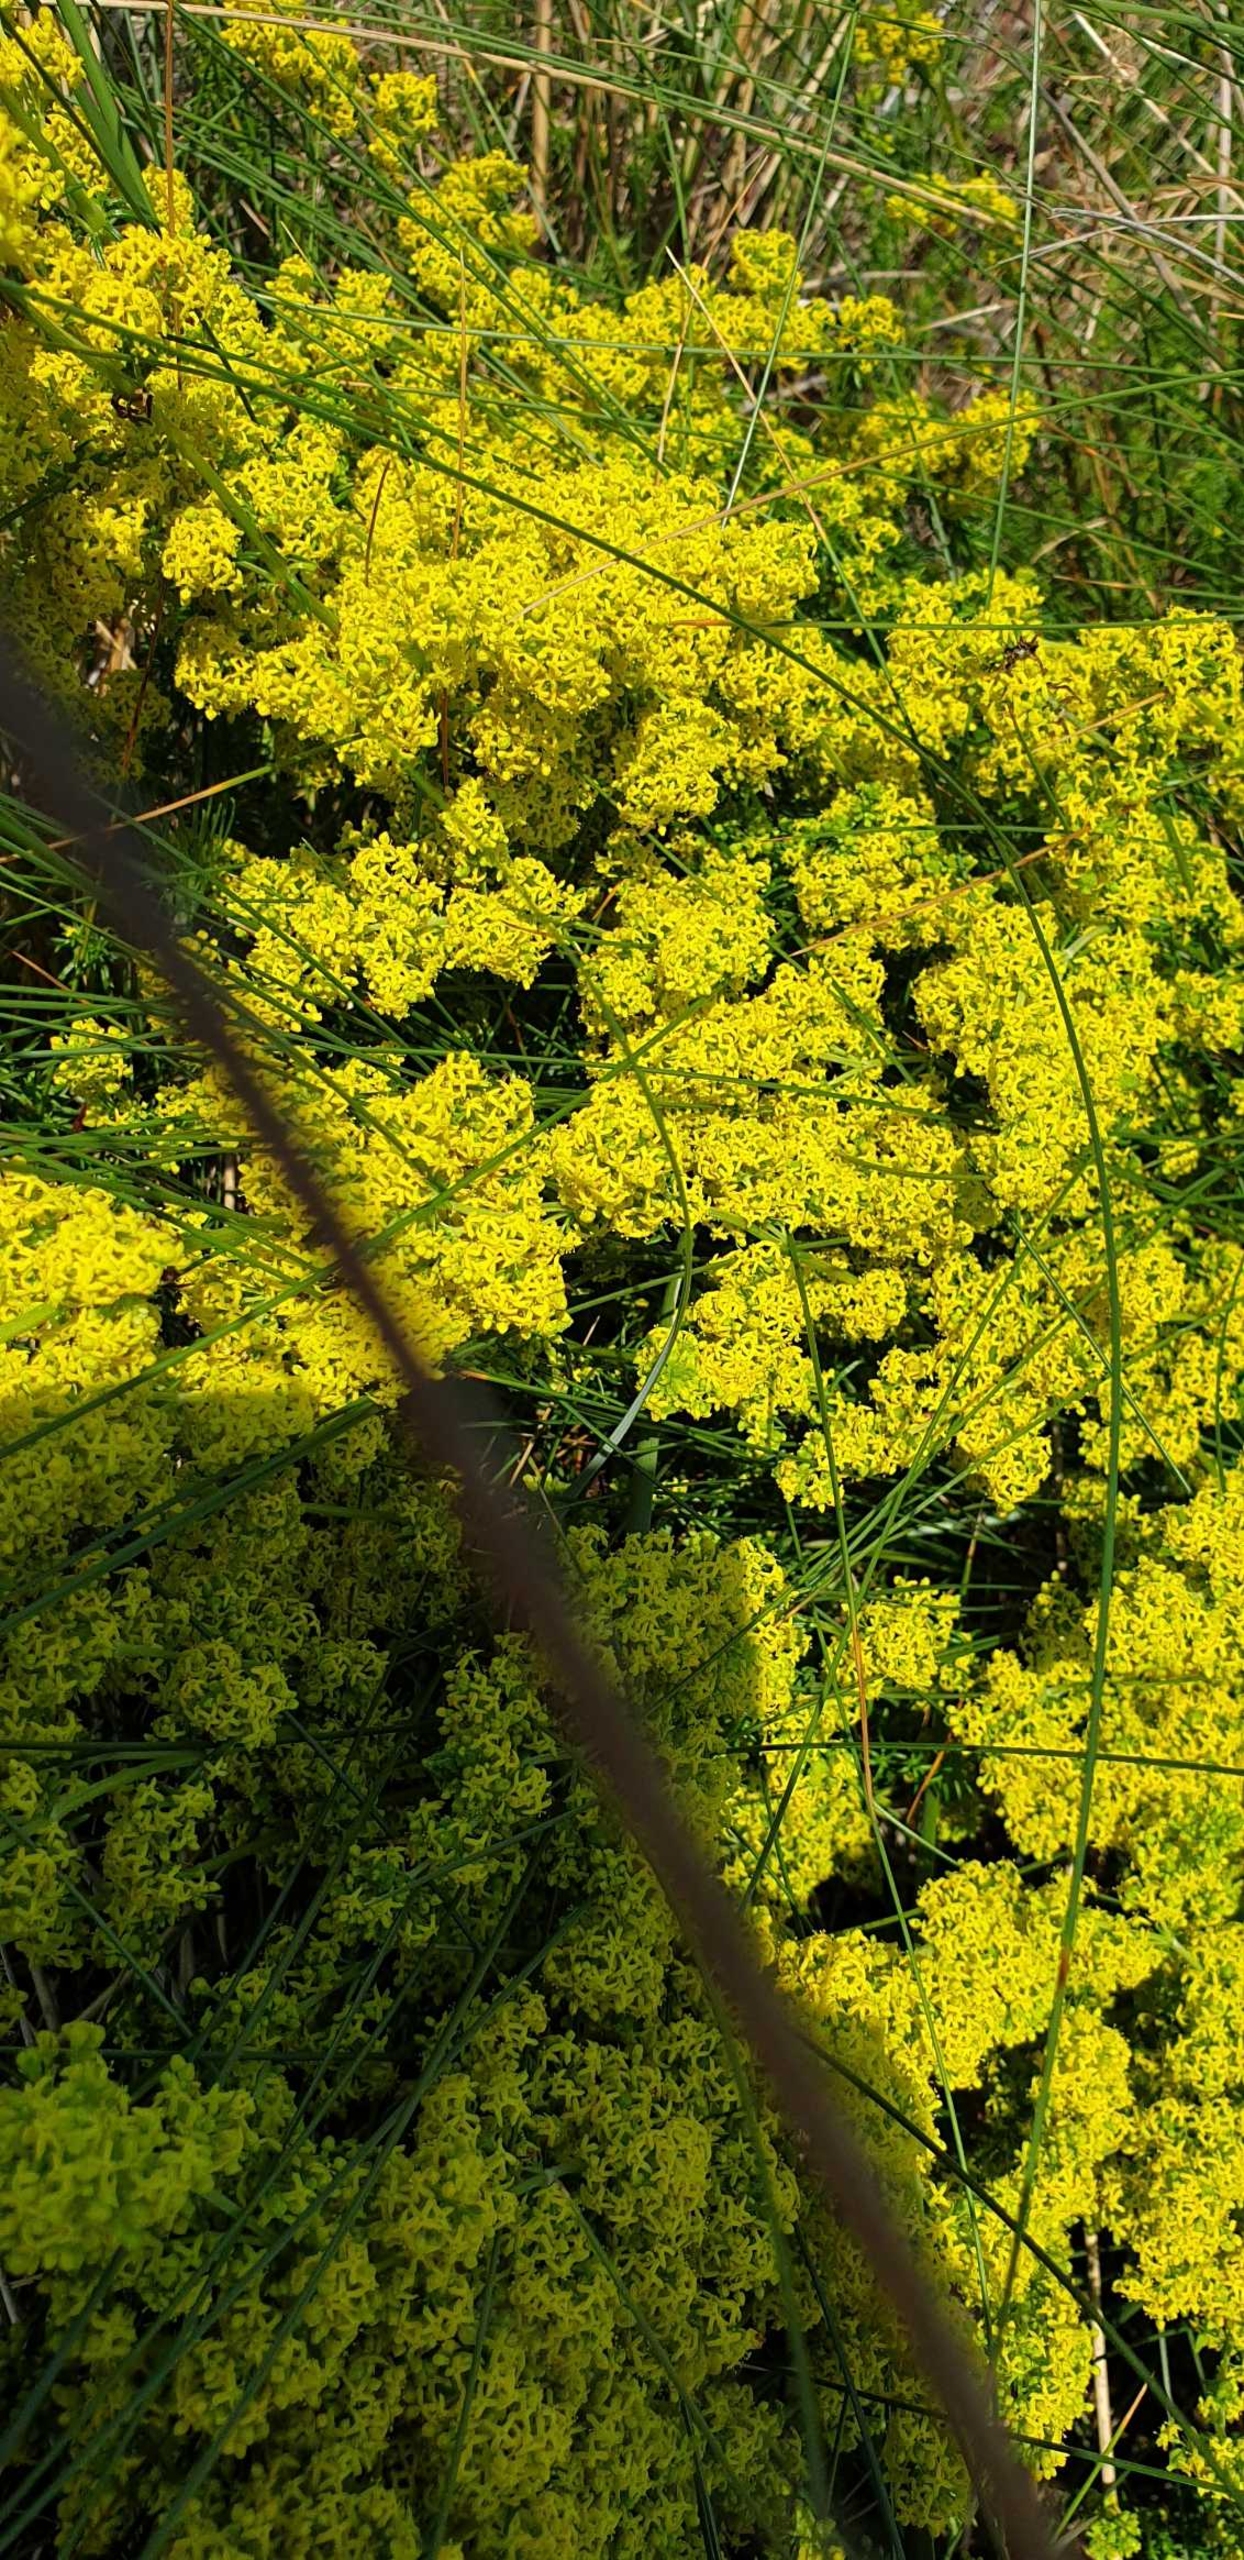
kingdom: Plantae
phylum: Tracheophyta
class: Magnoliopsida
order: Gentianales
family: Rubiaceae
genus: Galium
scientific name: Galium verum
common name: Gul snerre
